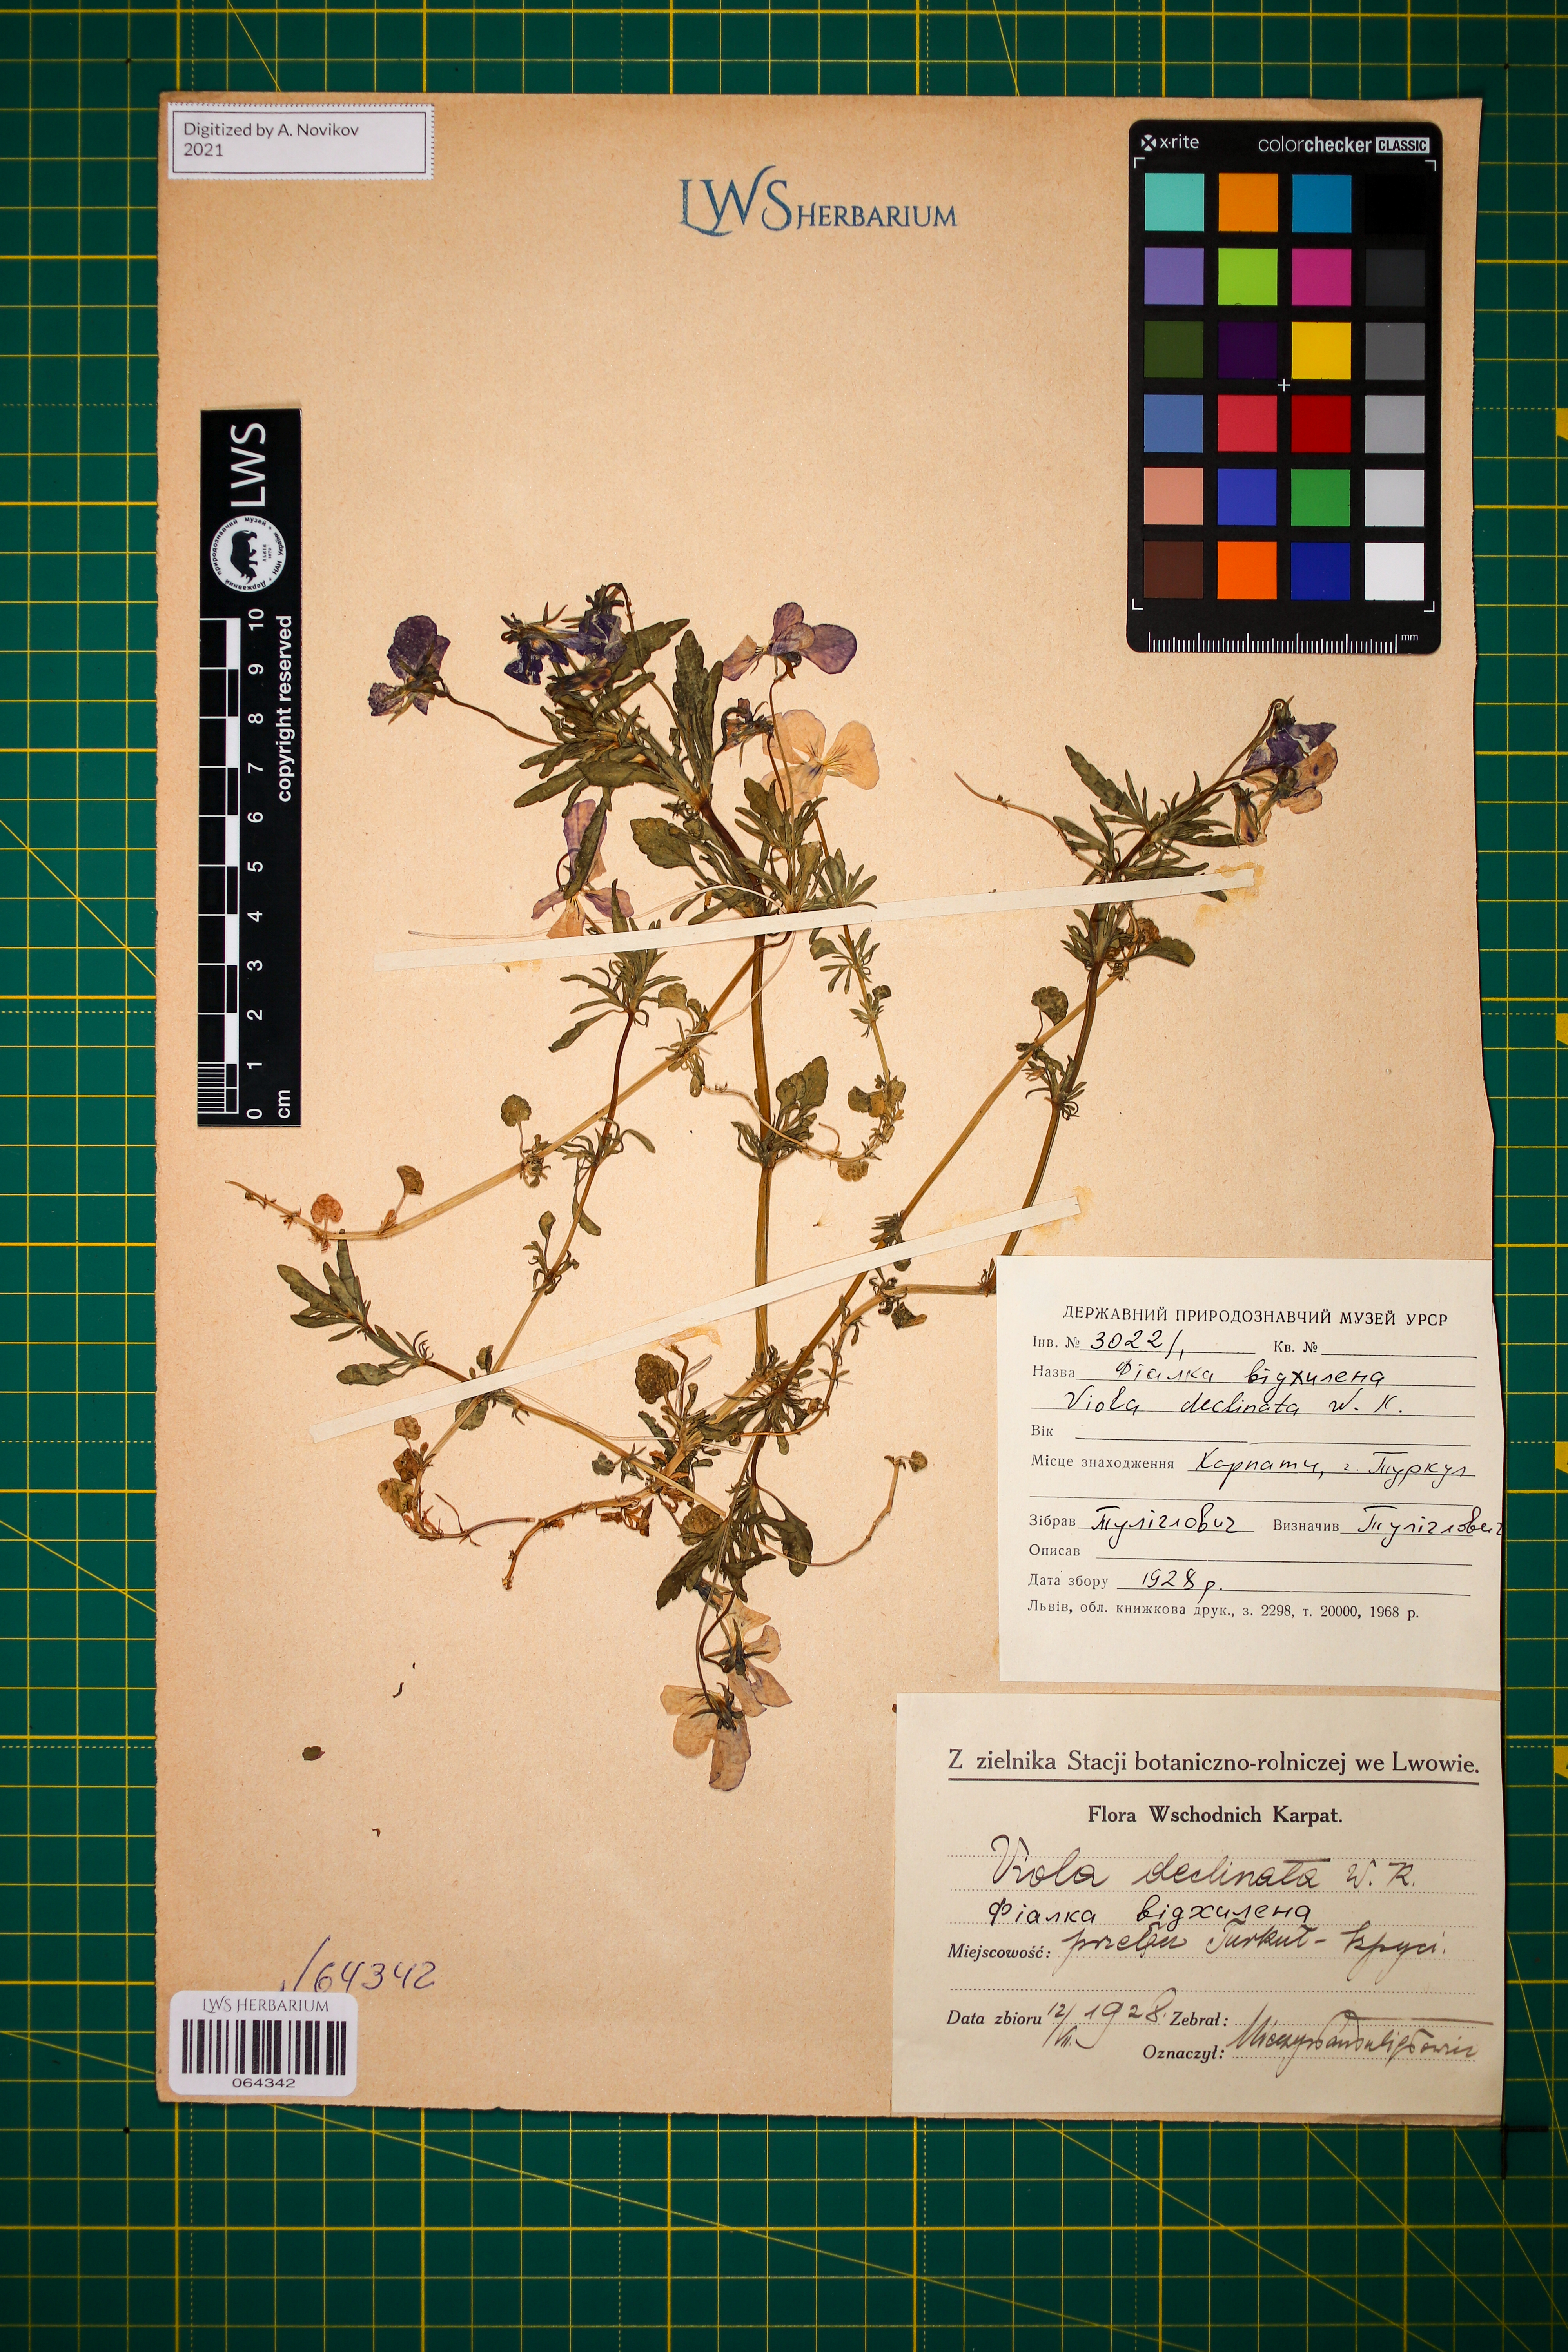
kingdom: Plantae
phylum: Tracheophyta
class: Magnoliopsida
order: Malpighiales
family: Violaceae
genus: Viola
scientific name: Viola declinata
